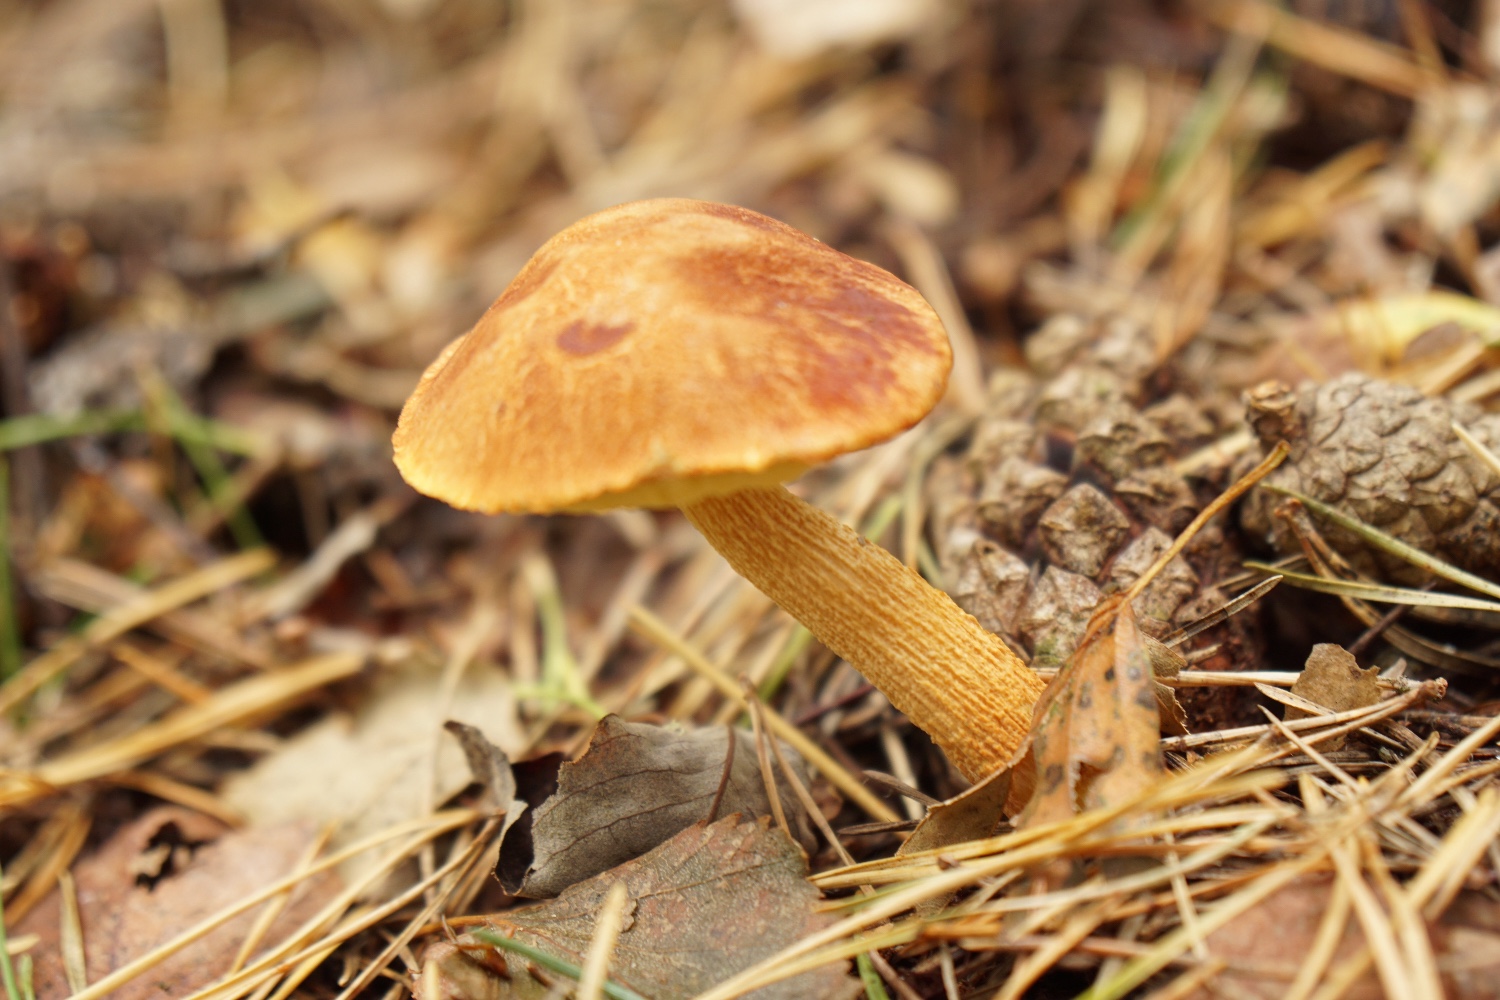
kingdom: Fungi
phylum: Basidiomycota
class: Agaricomycetes
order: Boletales
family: Boletaceae
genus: Aureoboletus
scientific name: Aureoboletus projectellus
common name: ribbestokket rørhat
